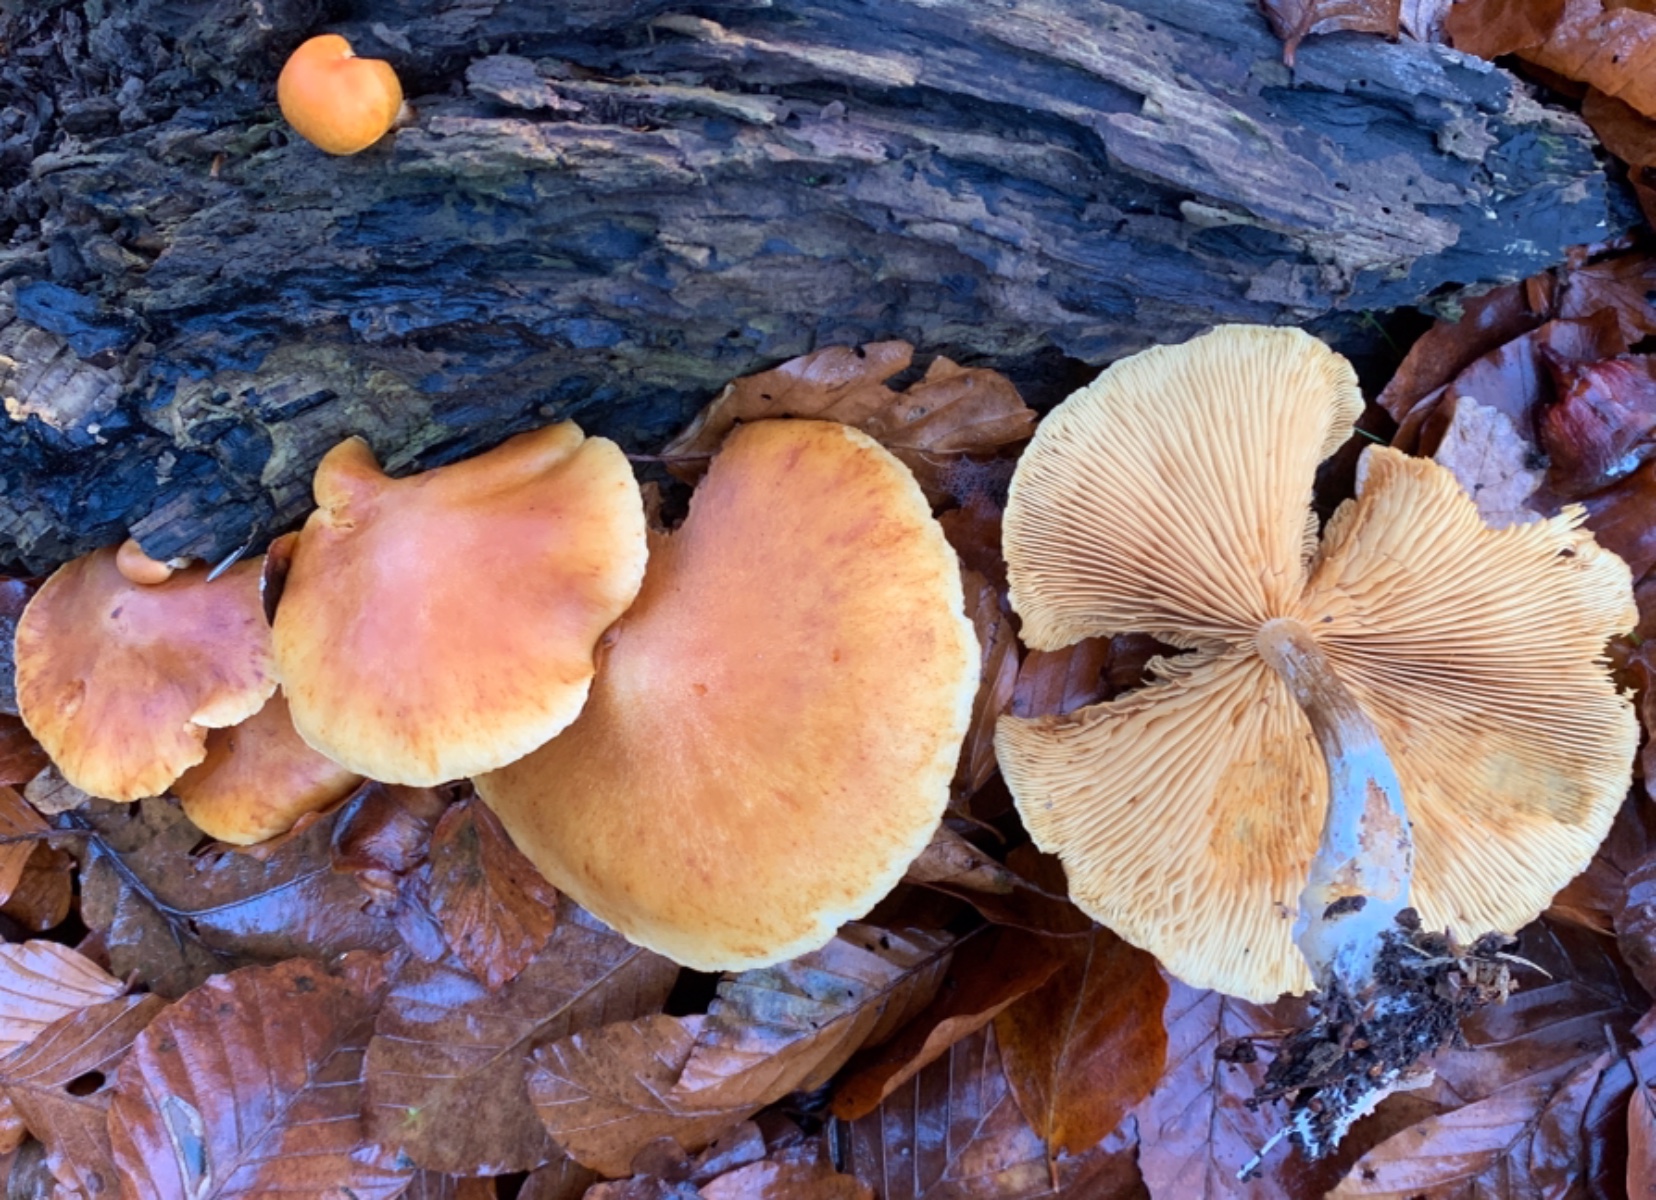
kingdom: Fungi
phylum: Basidiomycota
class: Agaricomycetes
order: Agaricales
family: Hymenogastraceae
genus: Gymnopilus
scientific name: Gymnopilus penetrans
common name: plettet flammehat
